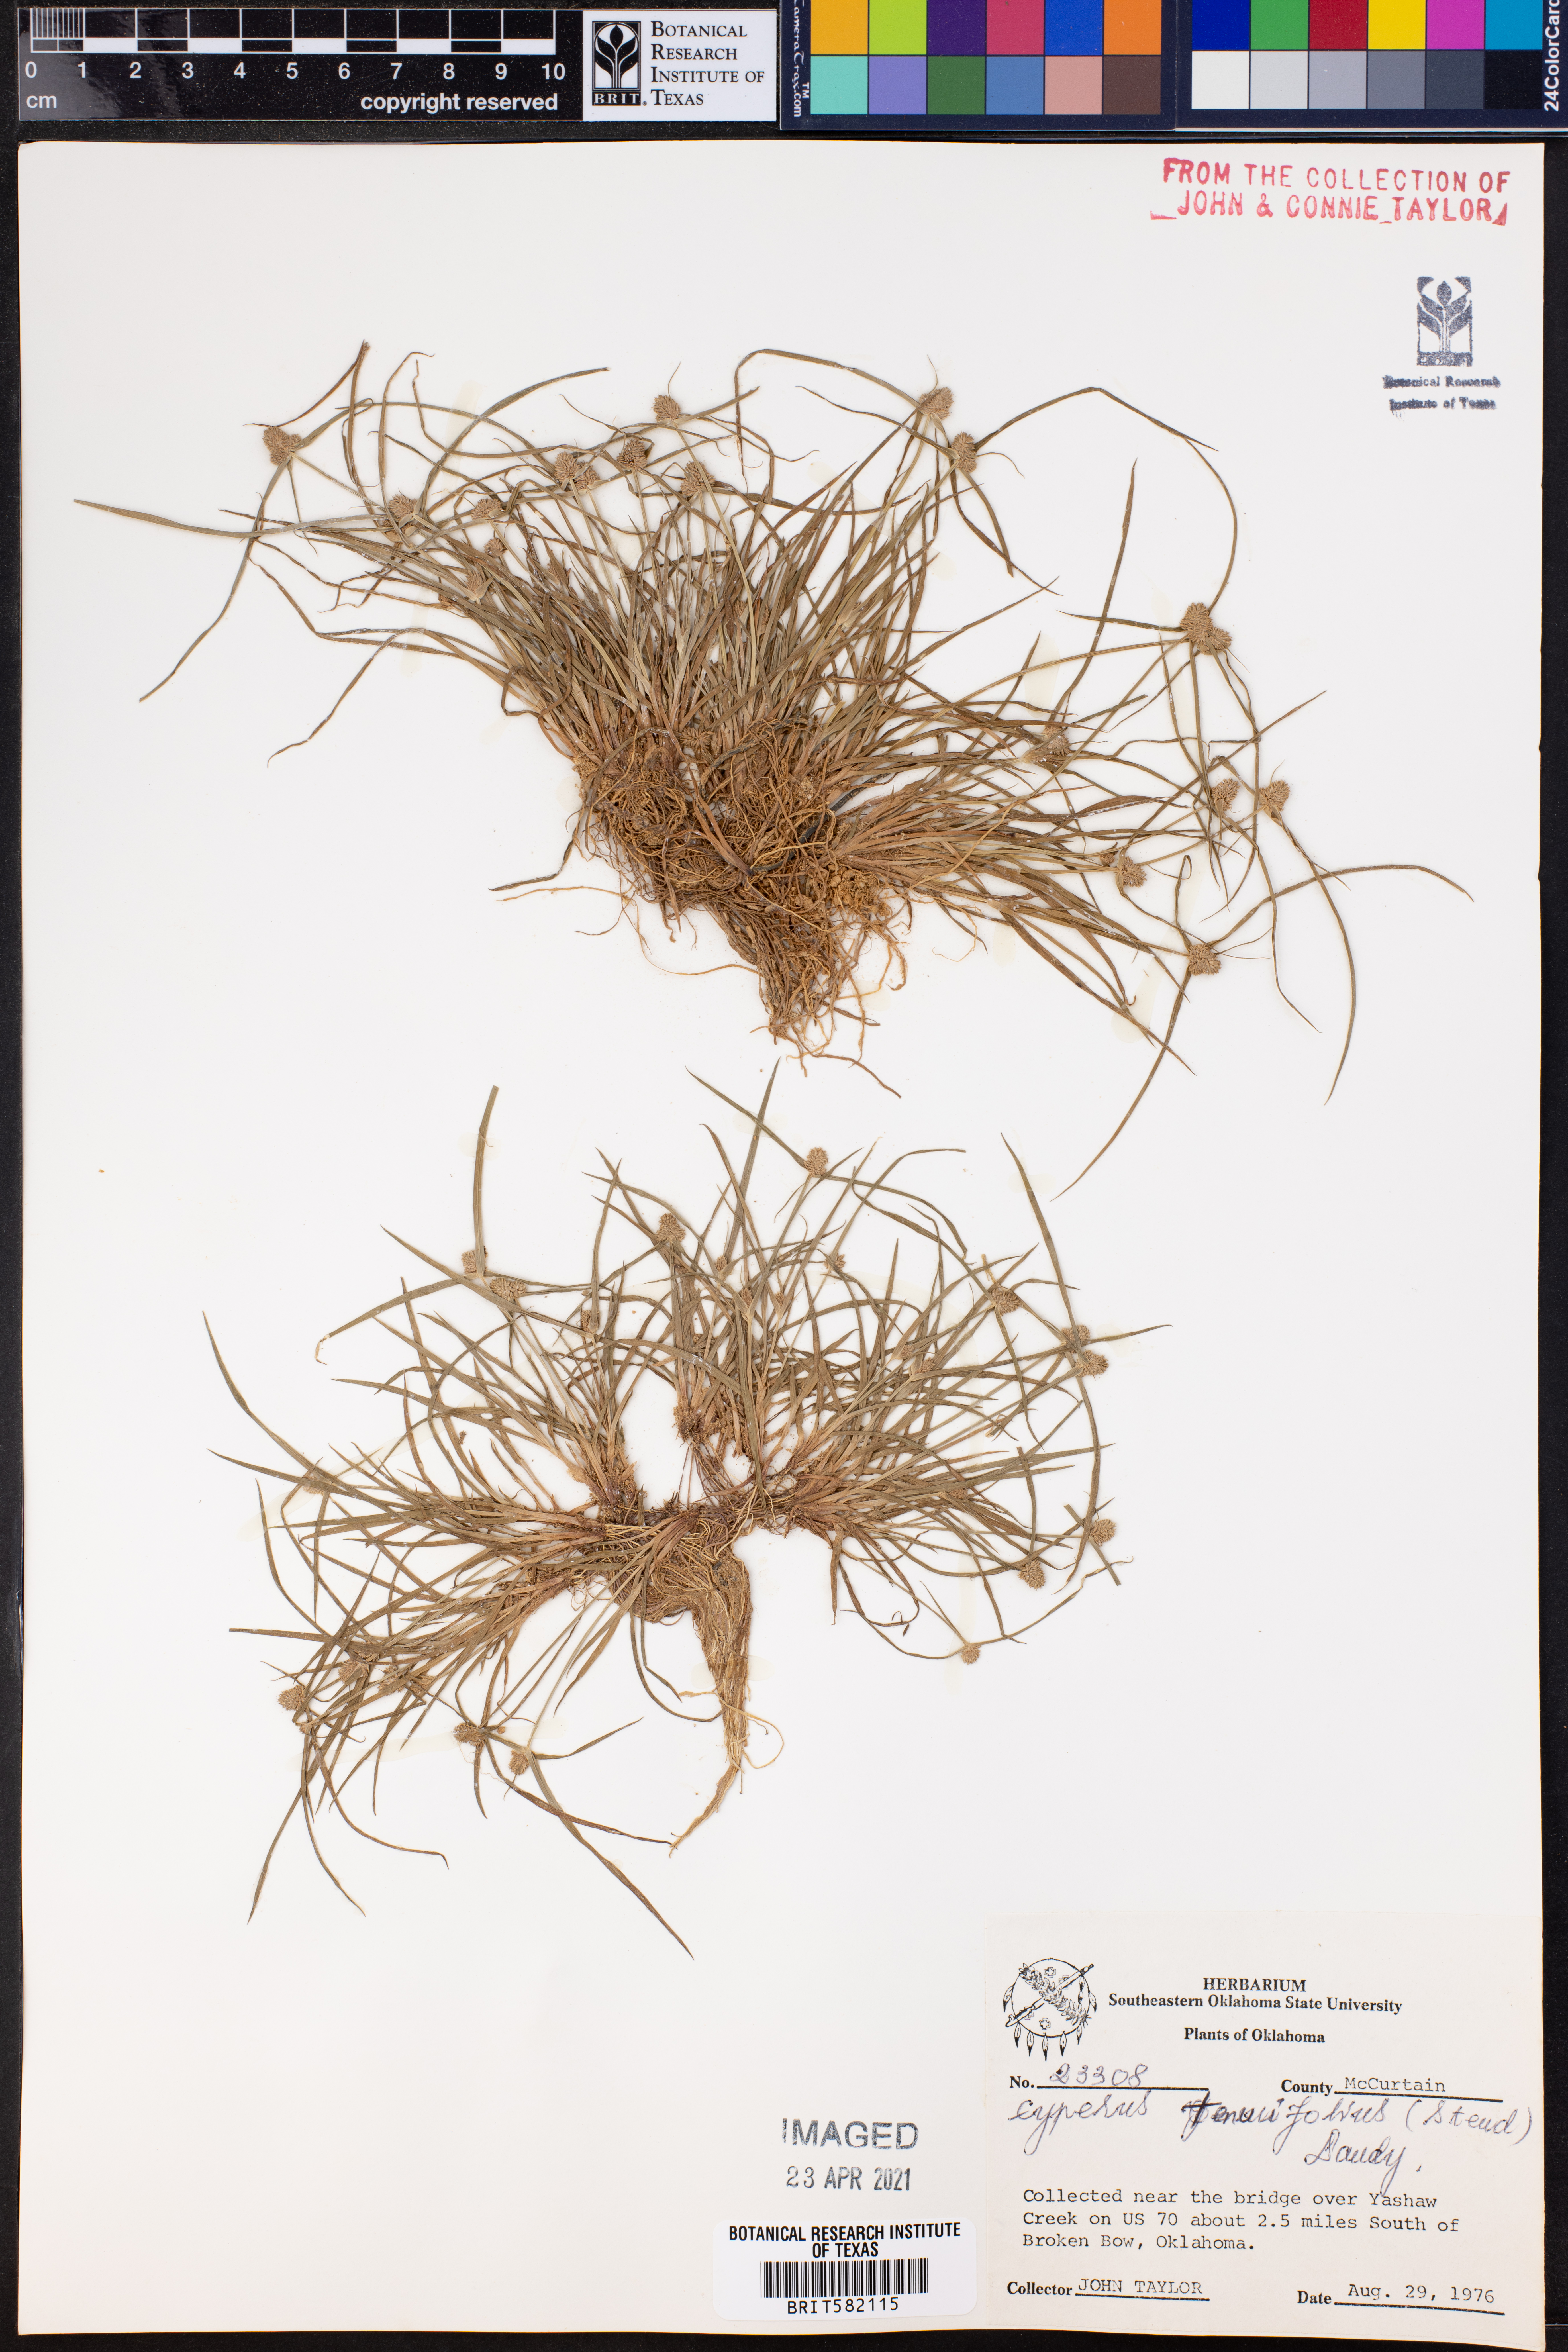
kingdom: Plantae
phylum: Tracheophyta
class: Liliopsida
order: Poales
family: Cyperaceae
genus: Cyperus
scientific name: Cyperus tenuifolius
